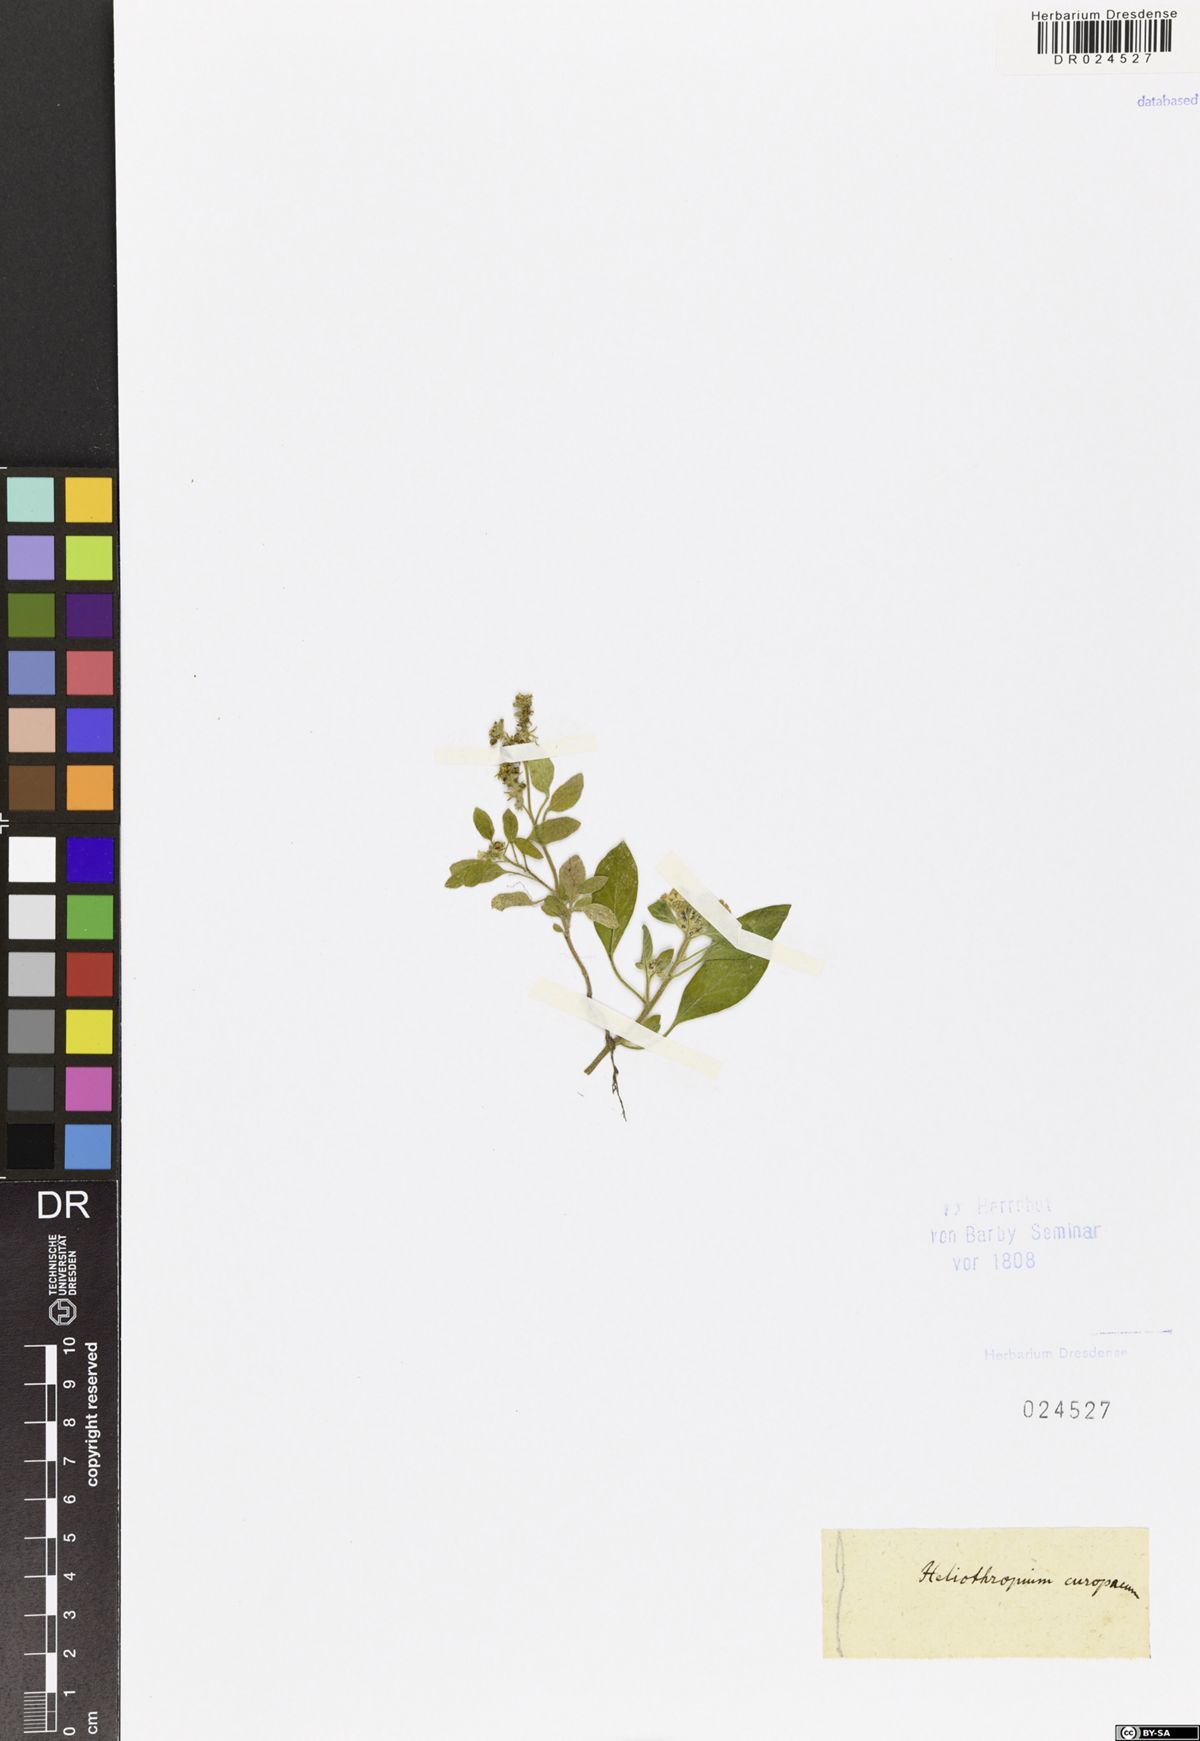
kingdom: Plantae
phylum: Tracheophyta
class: Magnoliopsida
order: Boraginales
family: Heliotropiaceae
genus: Heliotropium
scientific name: Heliotropium europaeum
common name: European heliotrope
